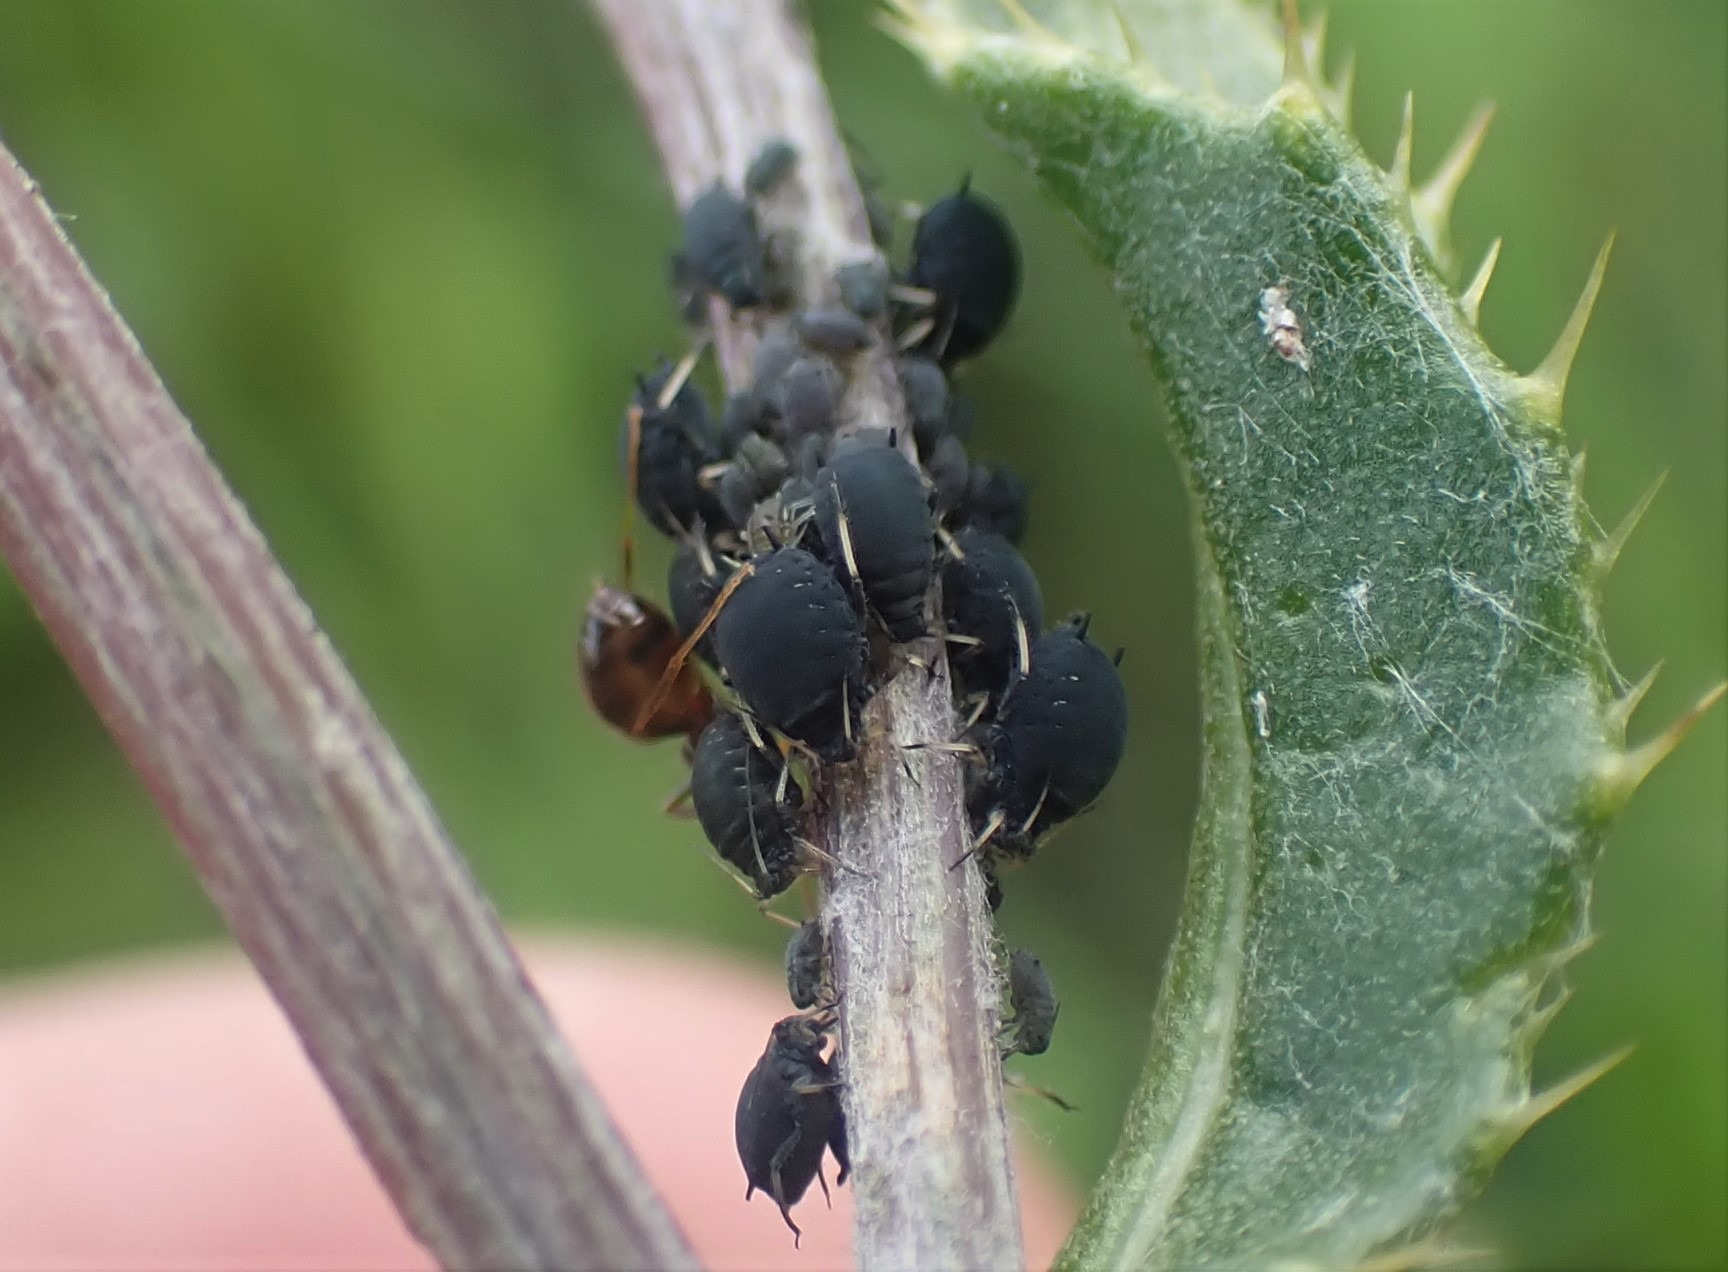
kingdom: Animalia
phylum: Arthropoda
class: Insecta
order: Hemiptera
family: Aphididae
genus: Aphis
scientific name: Aphis fabae
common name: Bedebladlus
